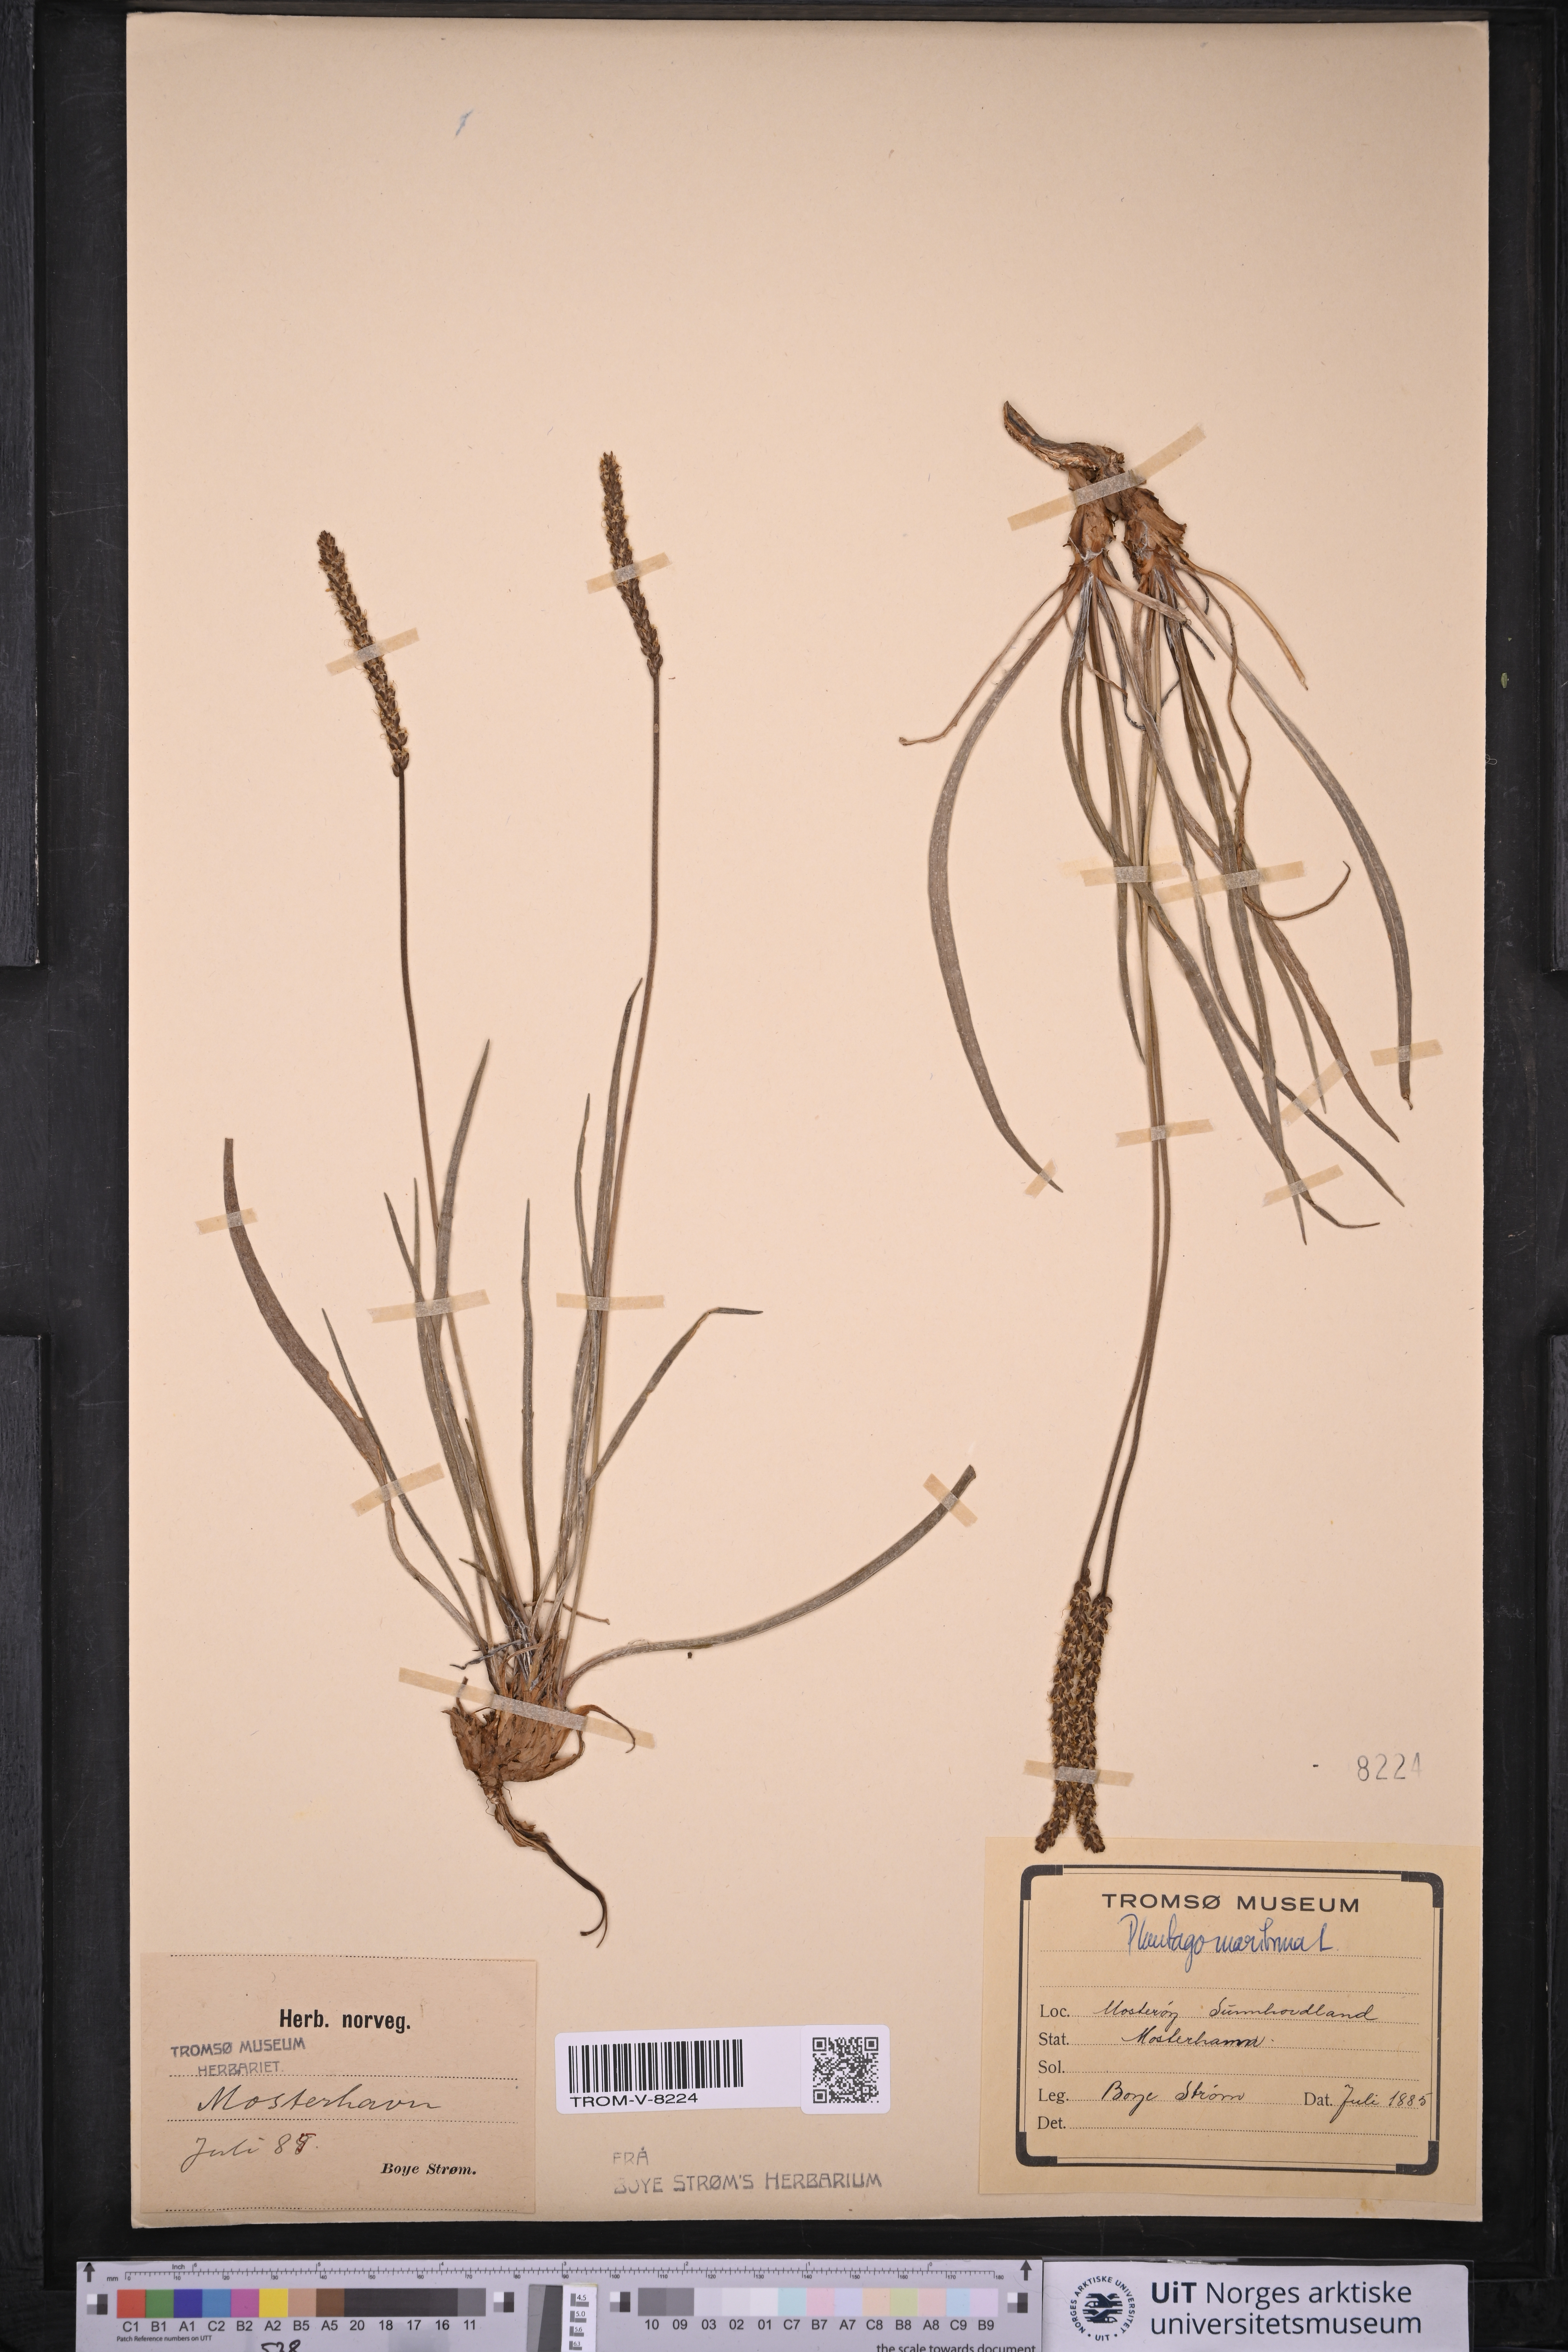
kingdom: Plantae
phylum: Tracheophyta
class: Magnoliopsida
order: Lamiales
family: Plantaginaceae
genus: Plantago
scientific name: Plantago maritima
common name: Sea plantain
